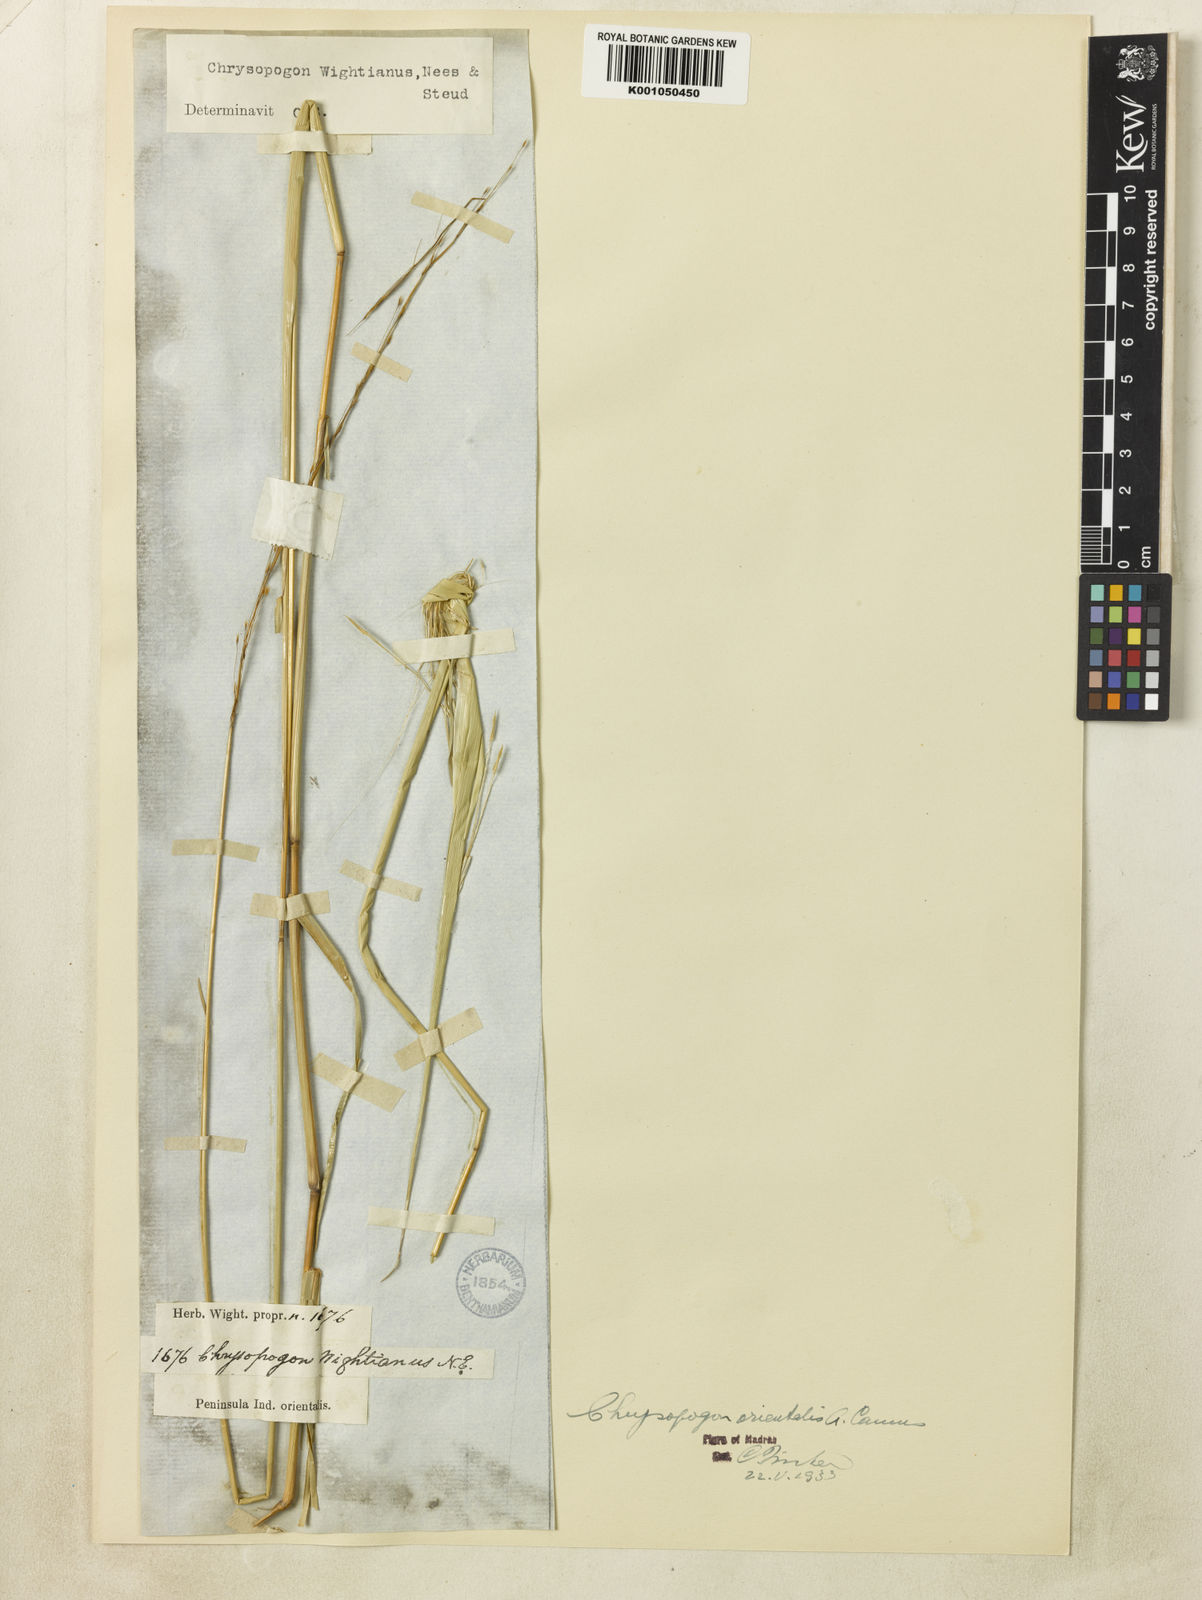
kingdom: Plantae
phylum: Tracheophyta
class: Liliopsida
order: Poales
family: Poaceae
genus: Chrysopogon
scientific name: Chrysopogon orientalis
